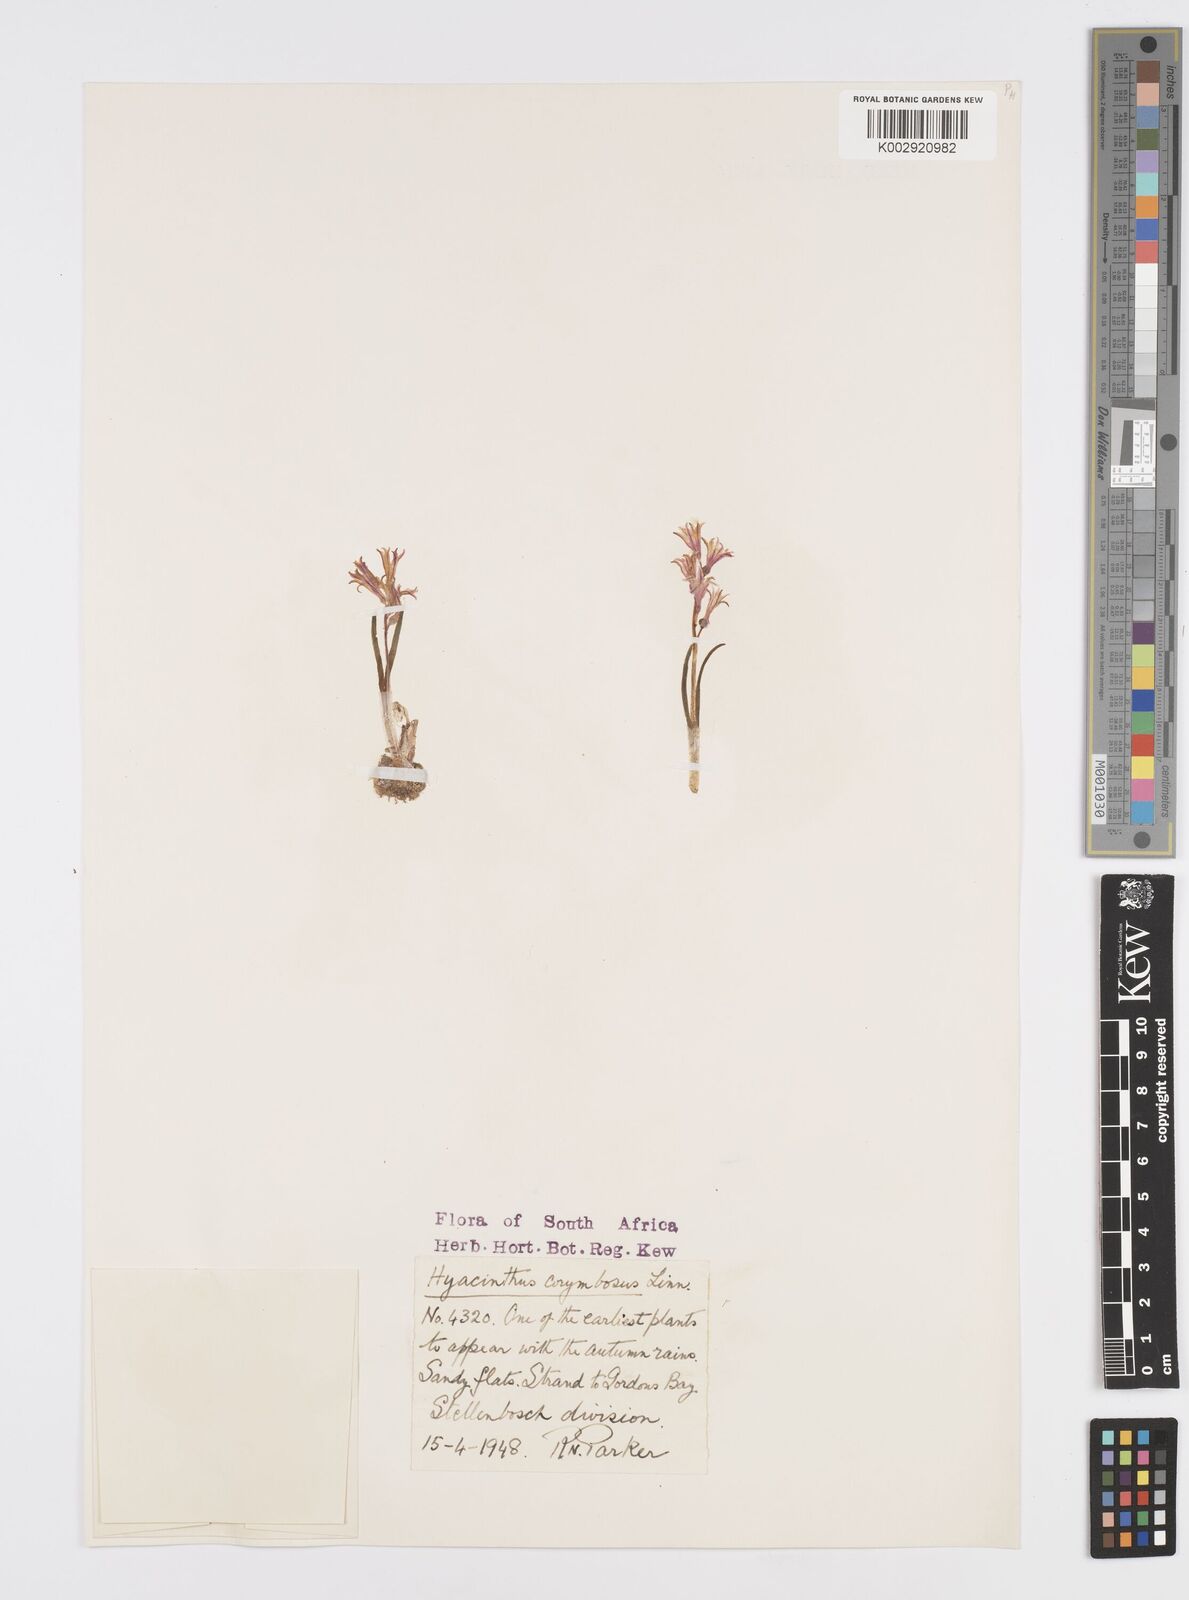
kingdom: Plantae
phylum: Tracheophyta
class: Liliopsida
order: Asparagales
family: Asparagaceae
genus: Lachenalia
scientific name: Lachenalia corymbosa
